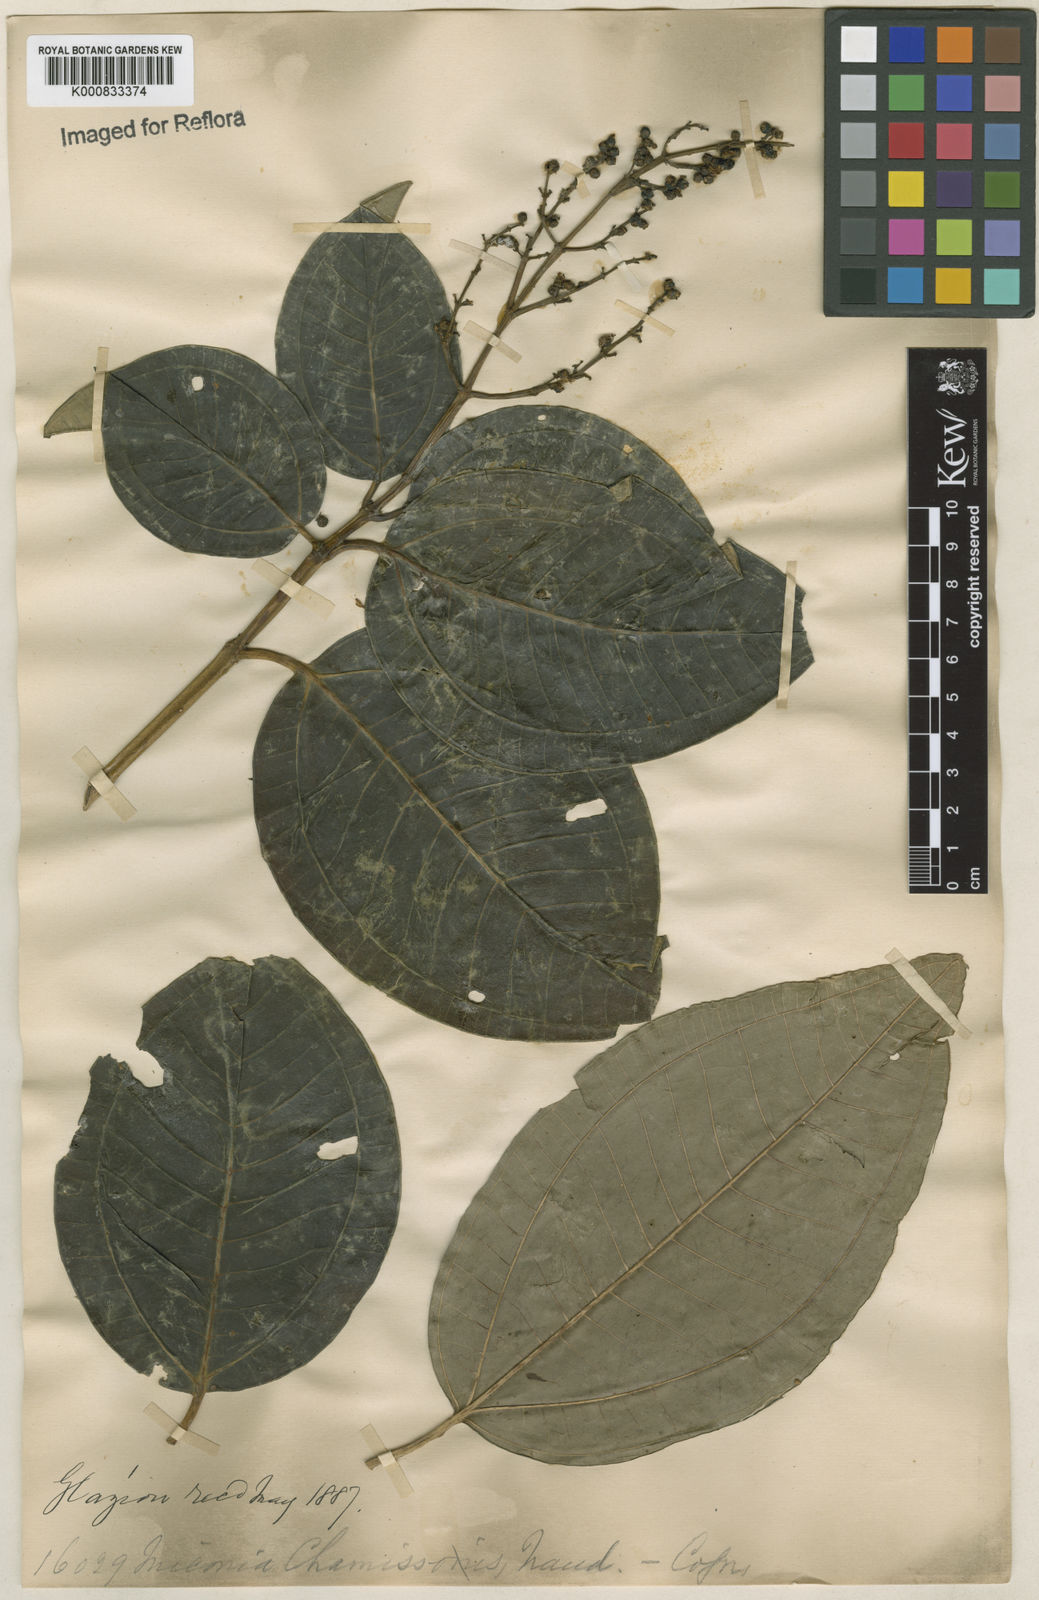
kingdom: Plantae
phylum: Tracheophyta
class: Magnoliopsida
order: Myrtales
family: Melastomataceae
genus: Miconia
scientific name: Miconia chamissois
